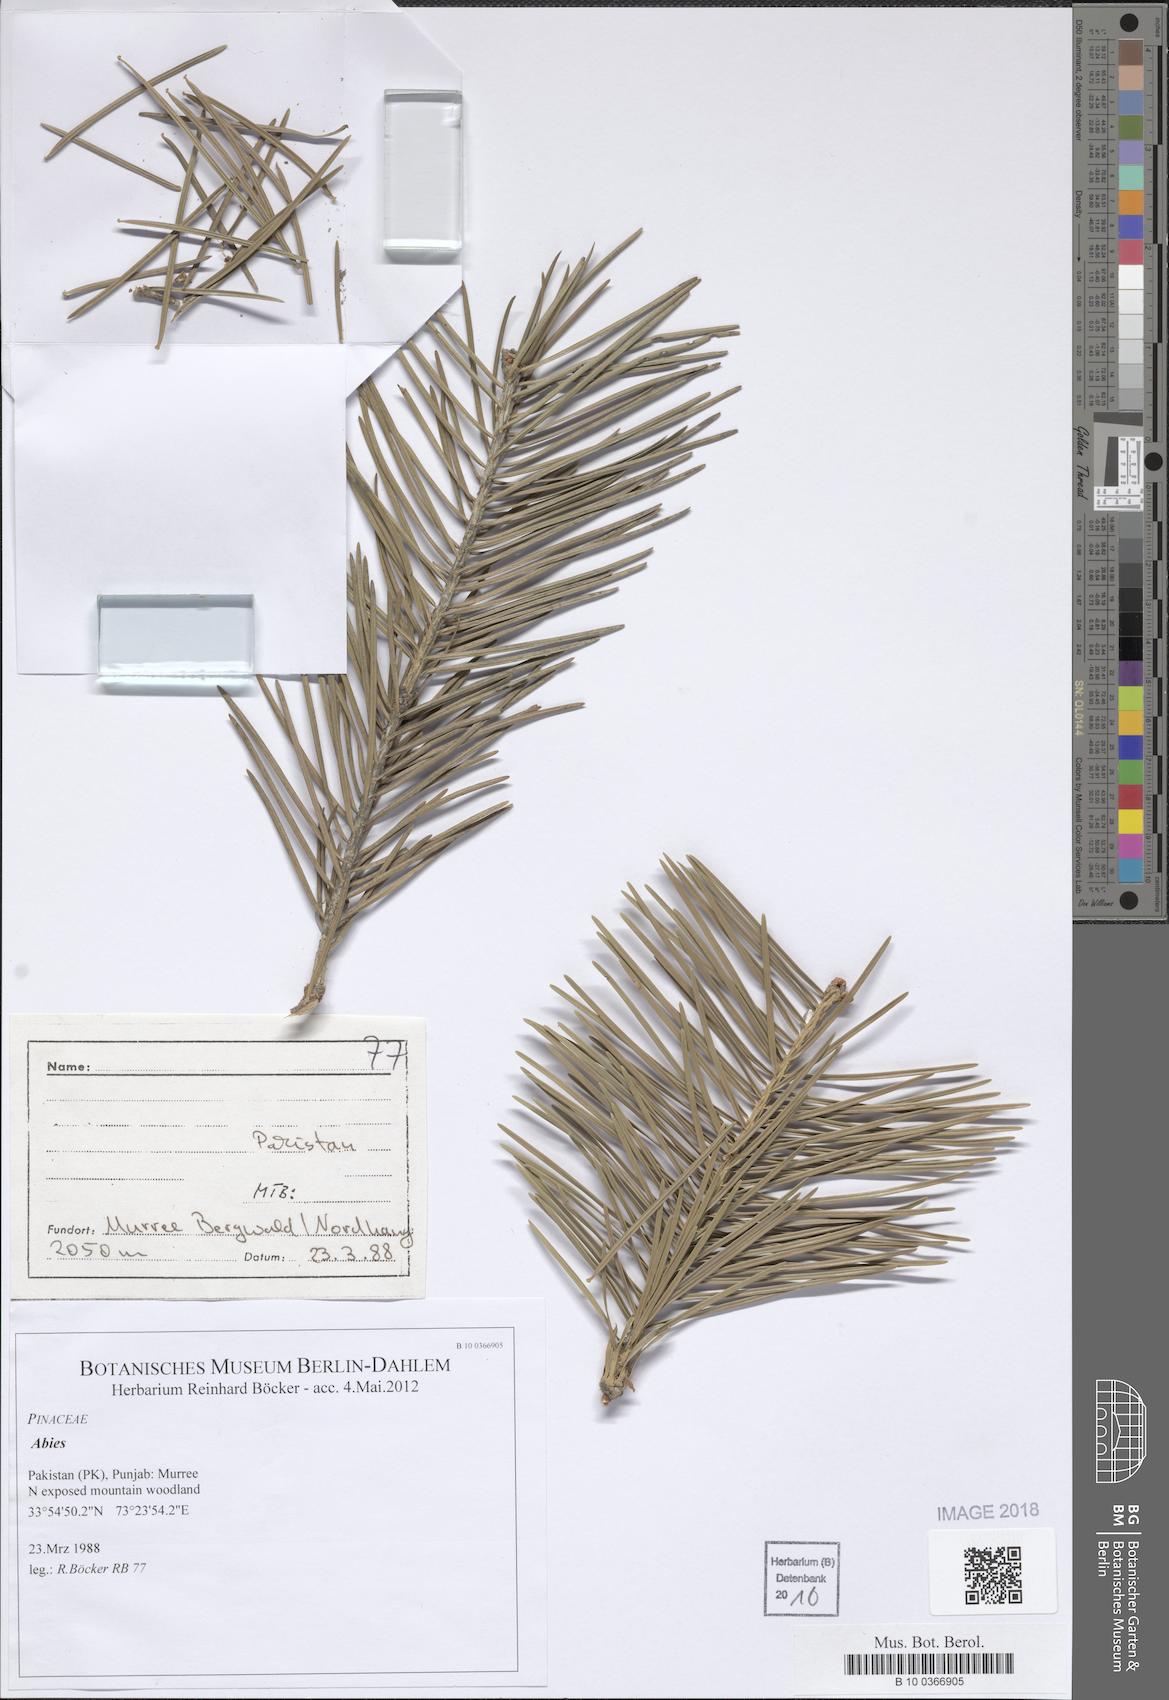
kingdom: Plantae
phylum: Tracheophyta
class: Pinopsida
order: Pinales
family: Pinaceae
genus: Abies
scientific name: Abies
